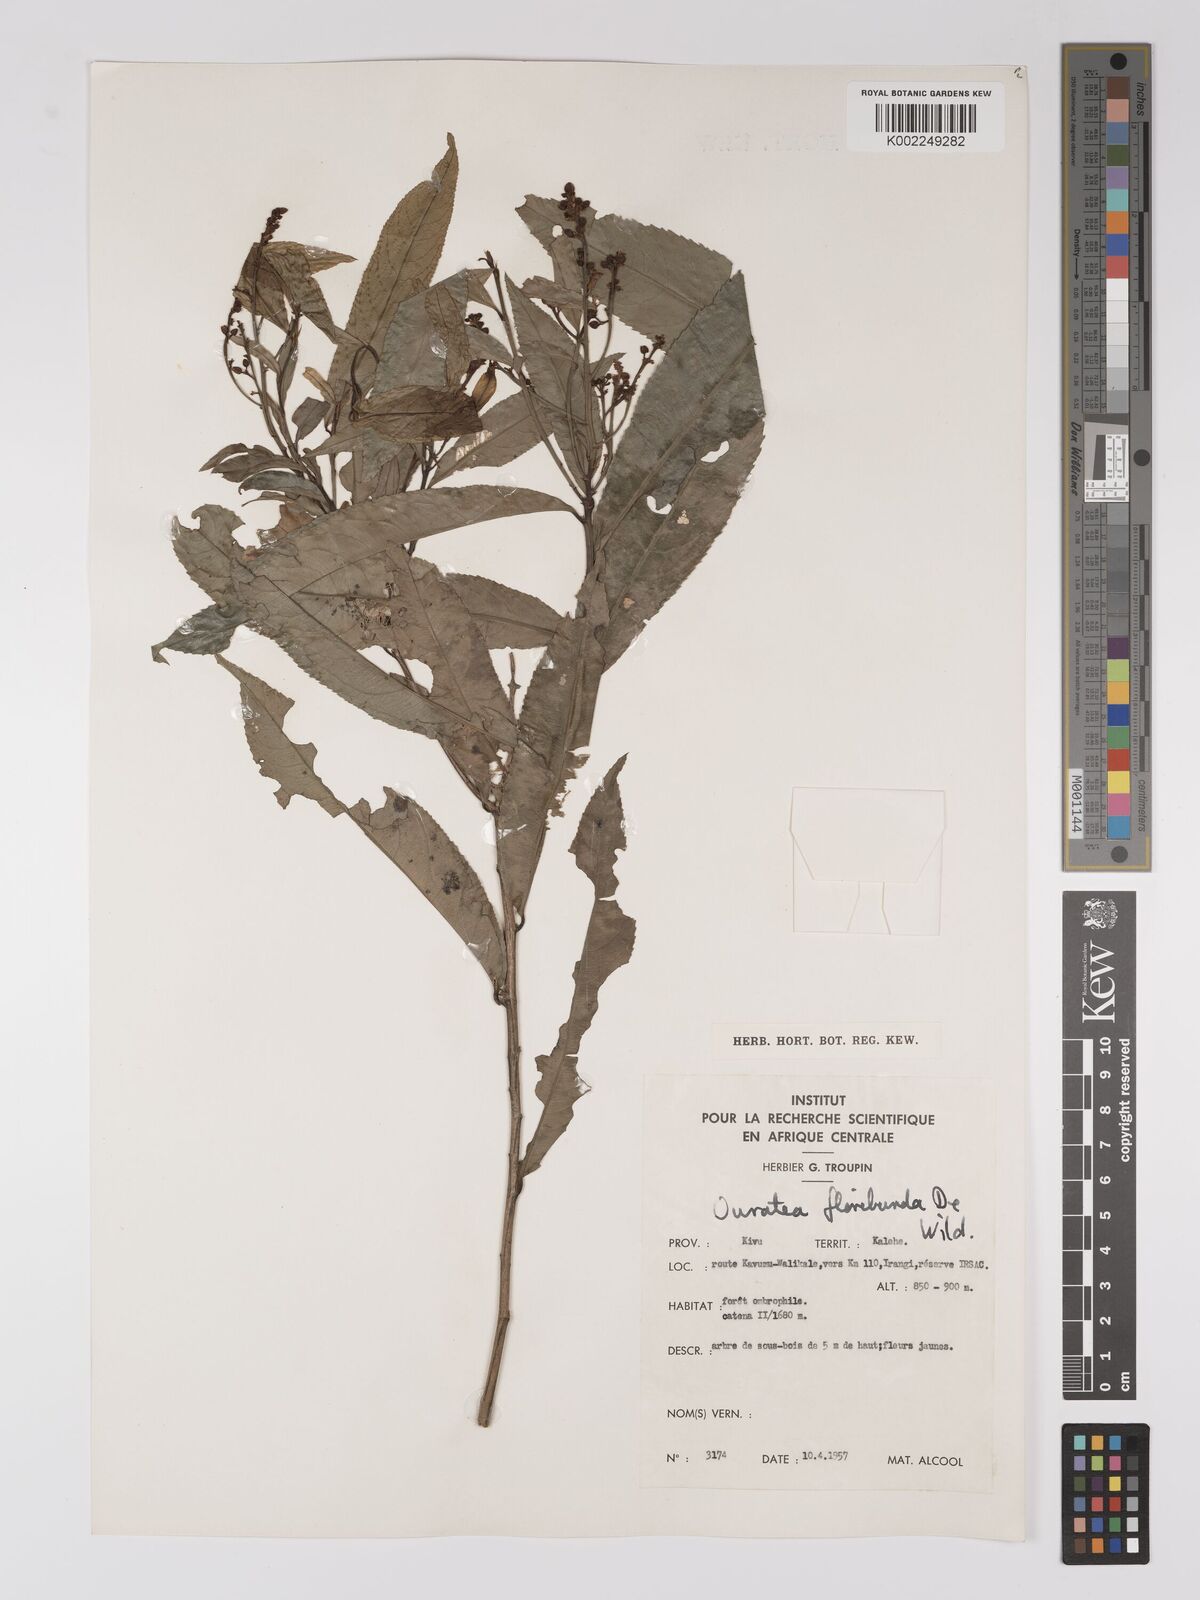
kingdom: Plantae
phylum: Tracheophyta
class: Magnoliopsida
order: Malpighiales
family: Ochnaceae
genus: Campylospermum
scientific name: Campylospermum likimiense
